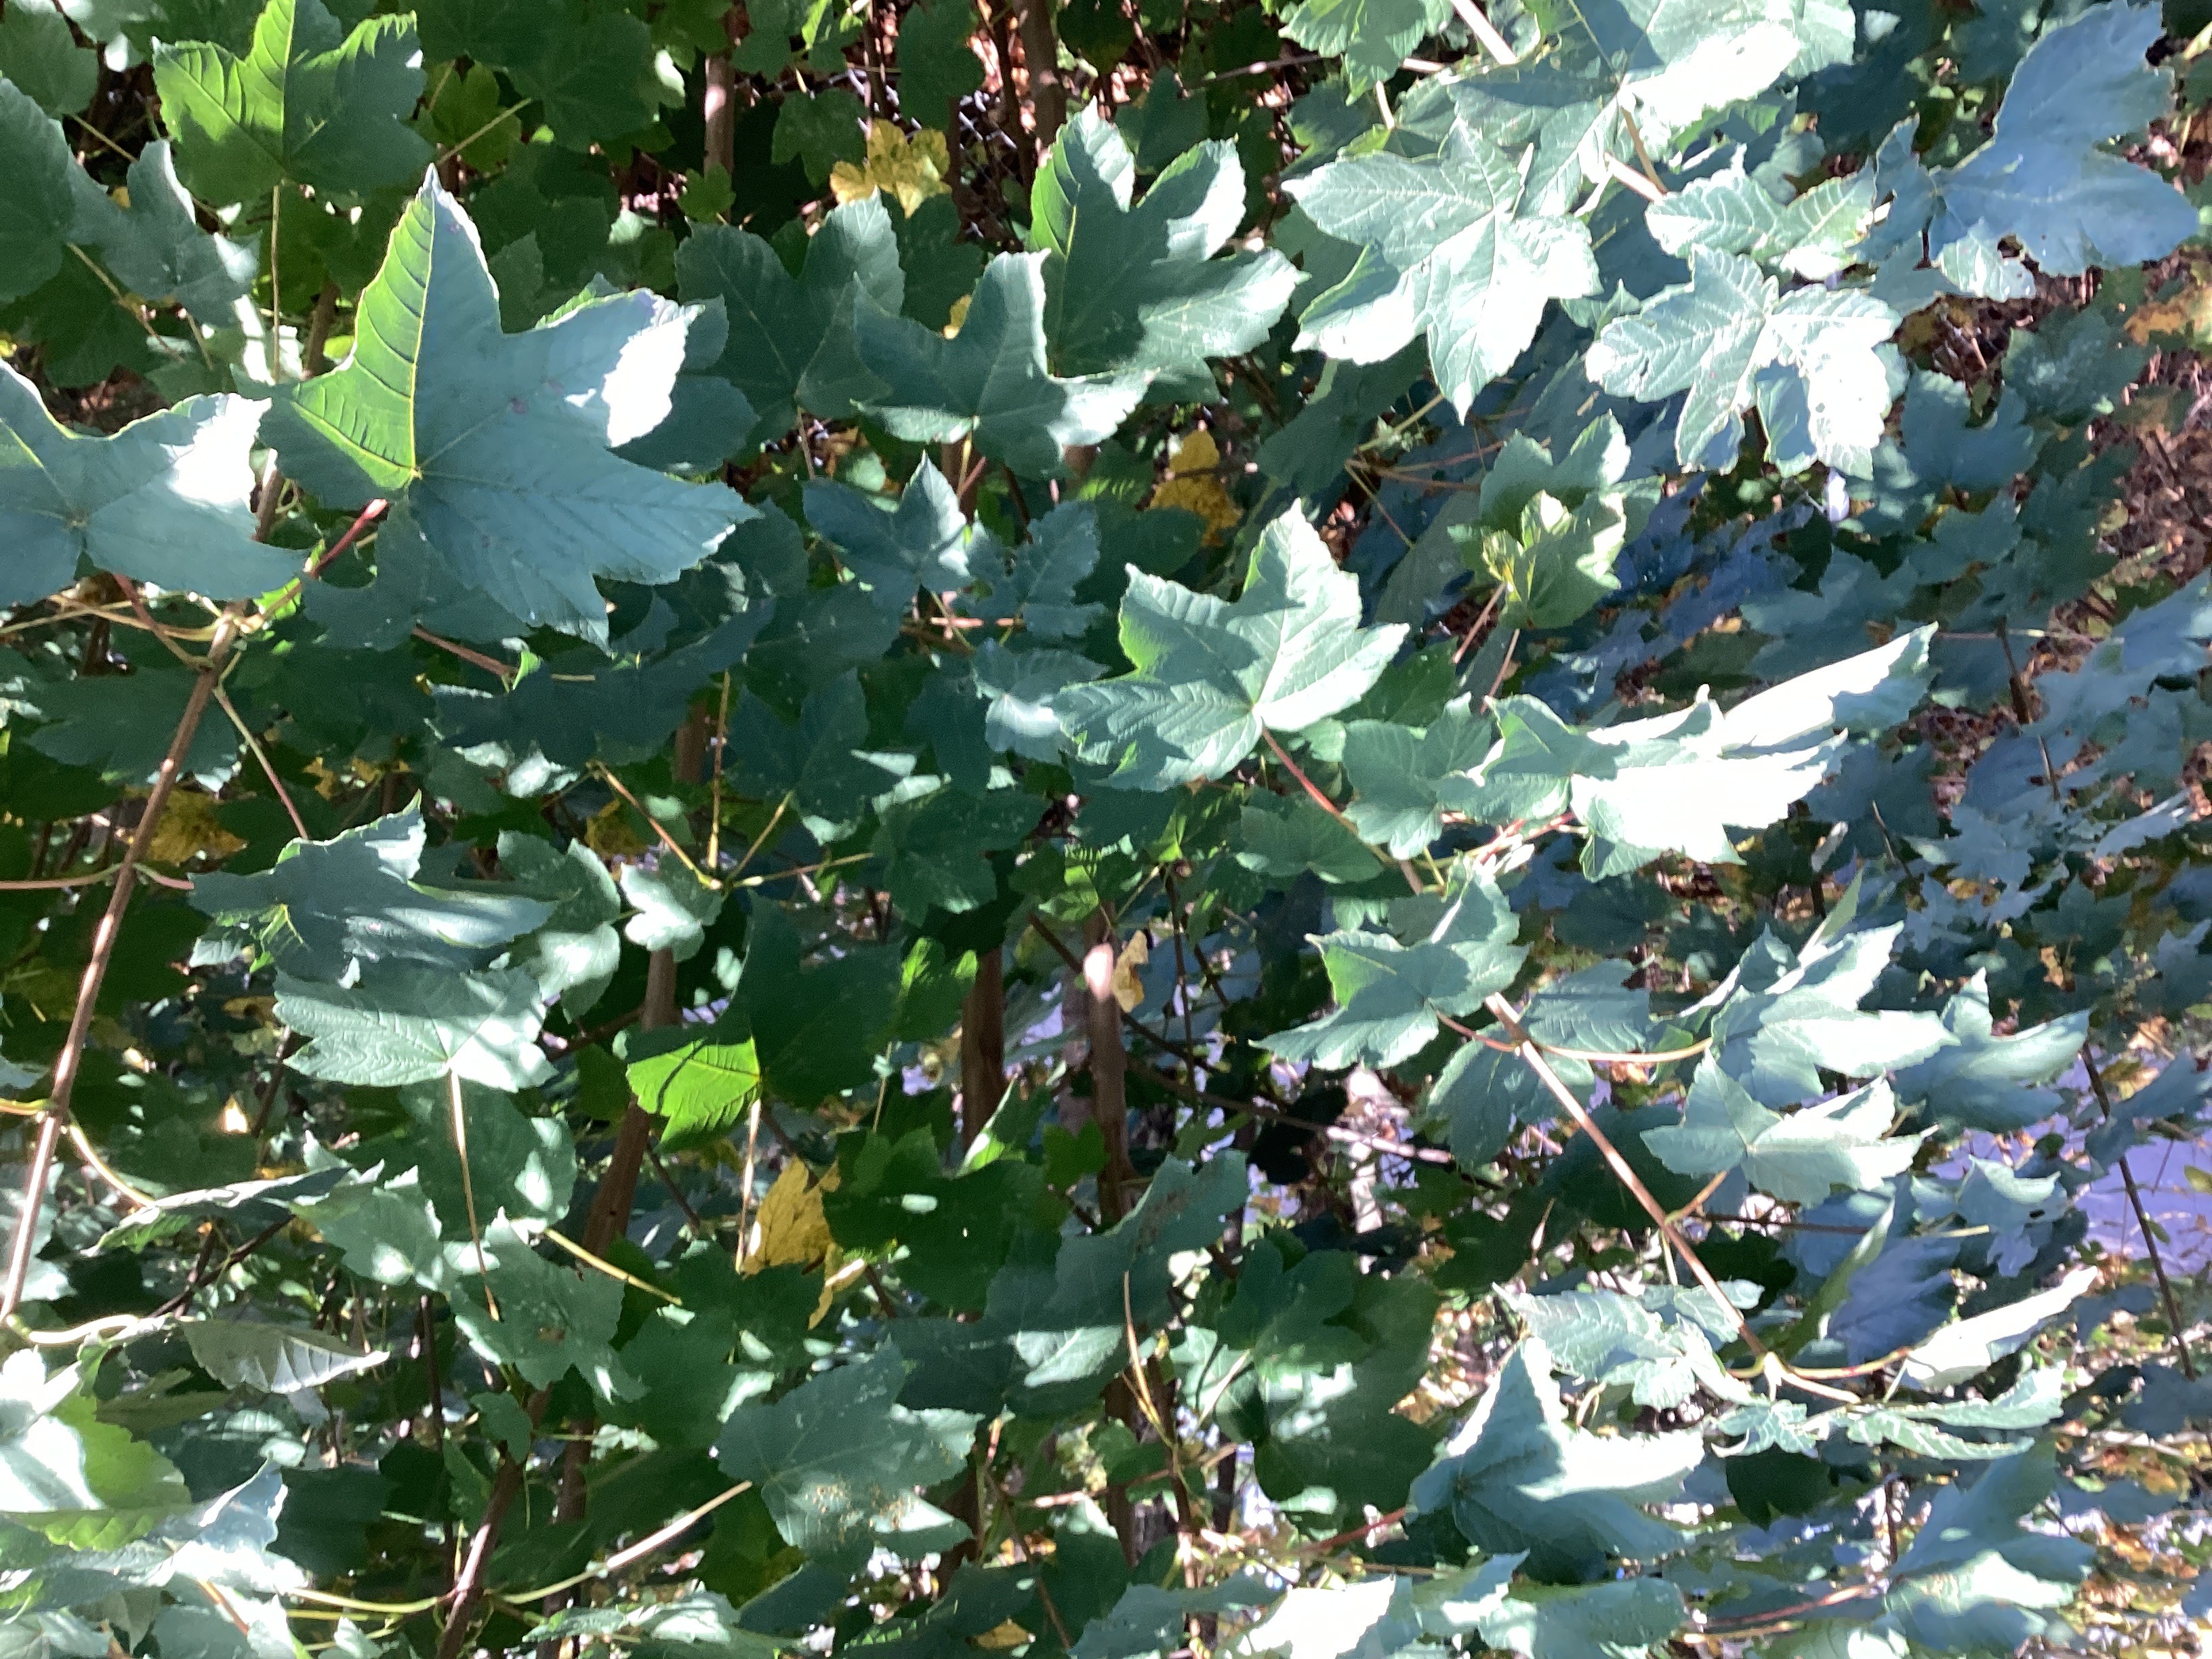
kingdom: Plantae
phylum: Tracheophyta
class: Magnoliopsida
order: Sapindales
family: Sapindaceae
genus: Acer
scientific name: Acer pseudoplatanus
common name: platanlønn
